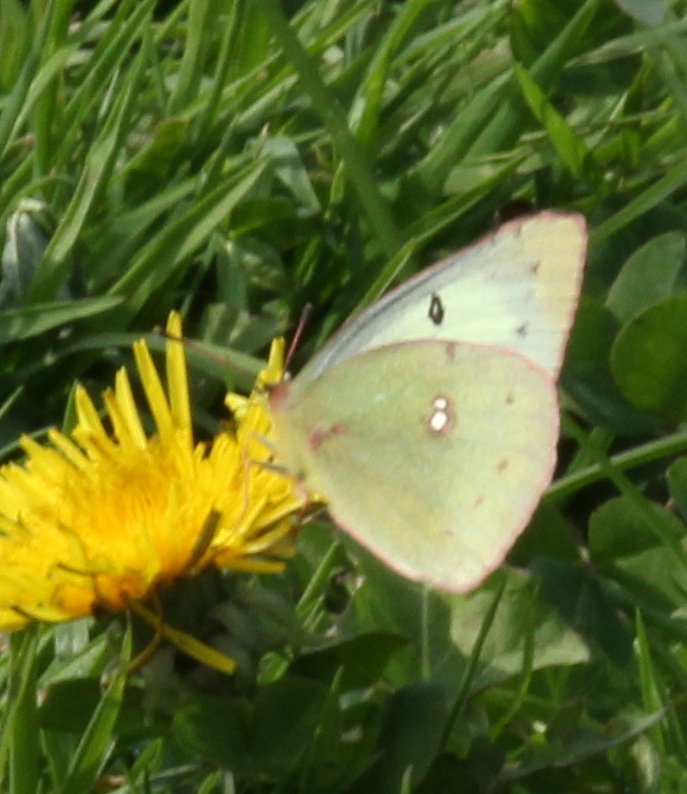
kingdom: Animalia
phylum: Arthropoda
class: Insecta
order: Lepidoptera
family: Pieridae
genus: Colias
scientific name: Colias philodice
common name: Clouded Sulphur
